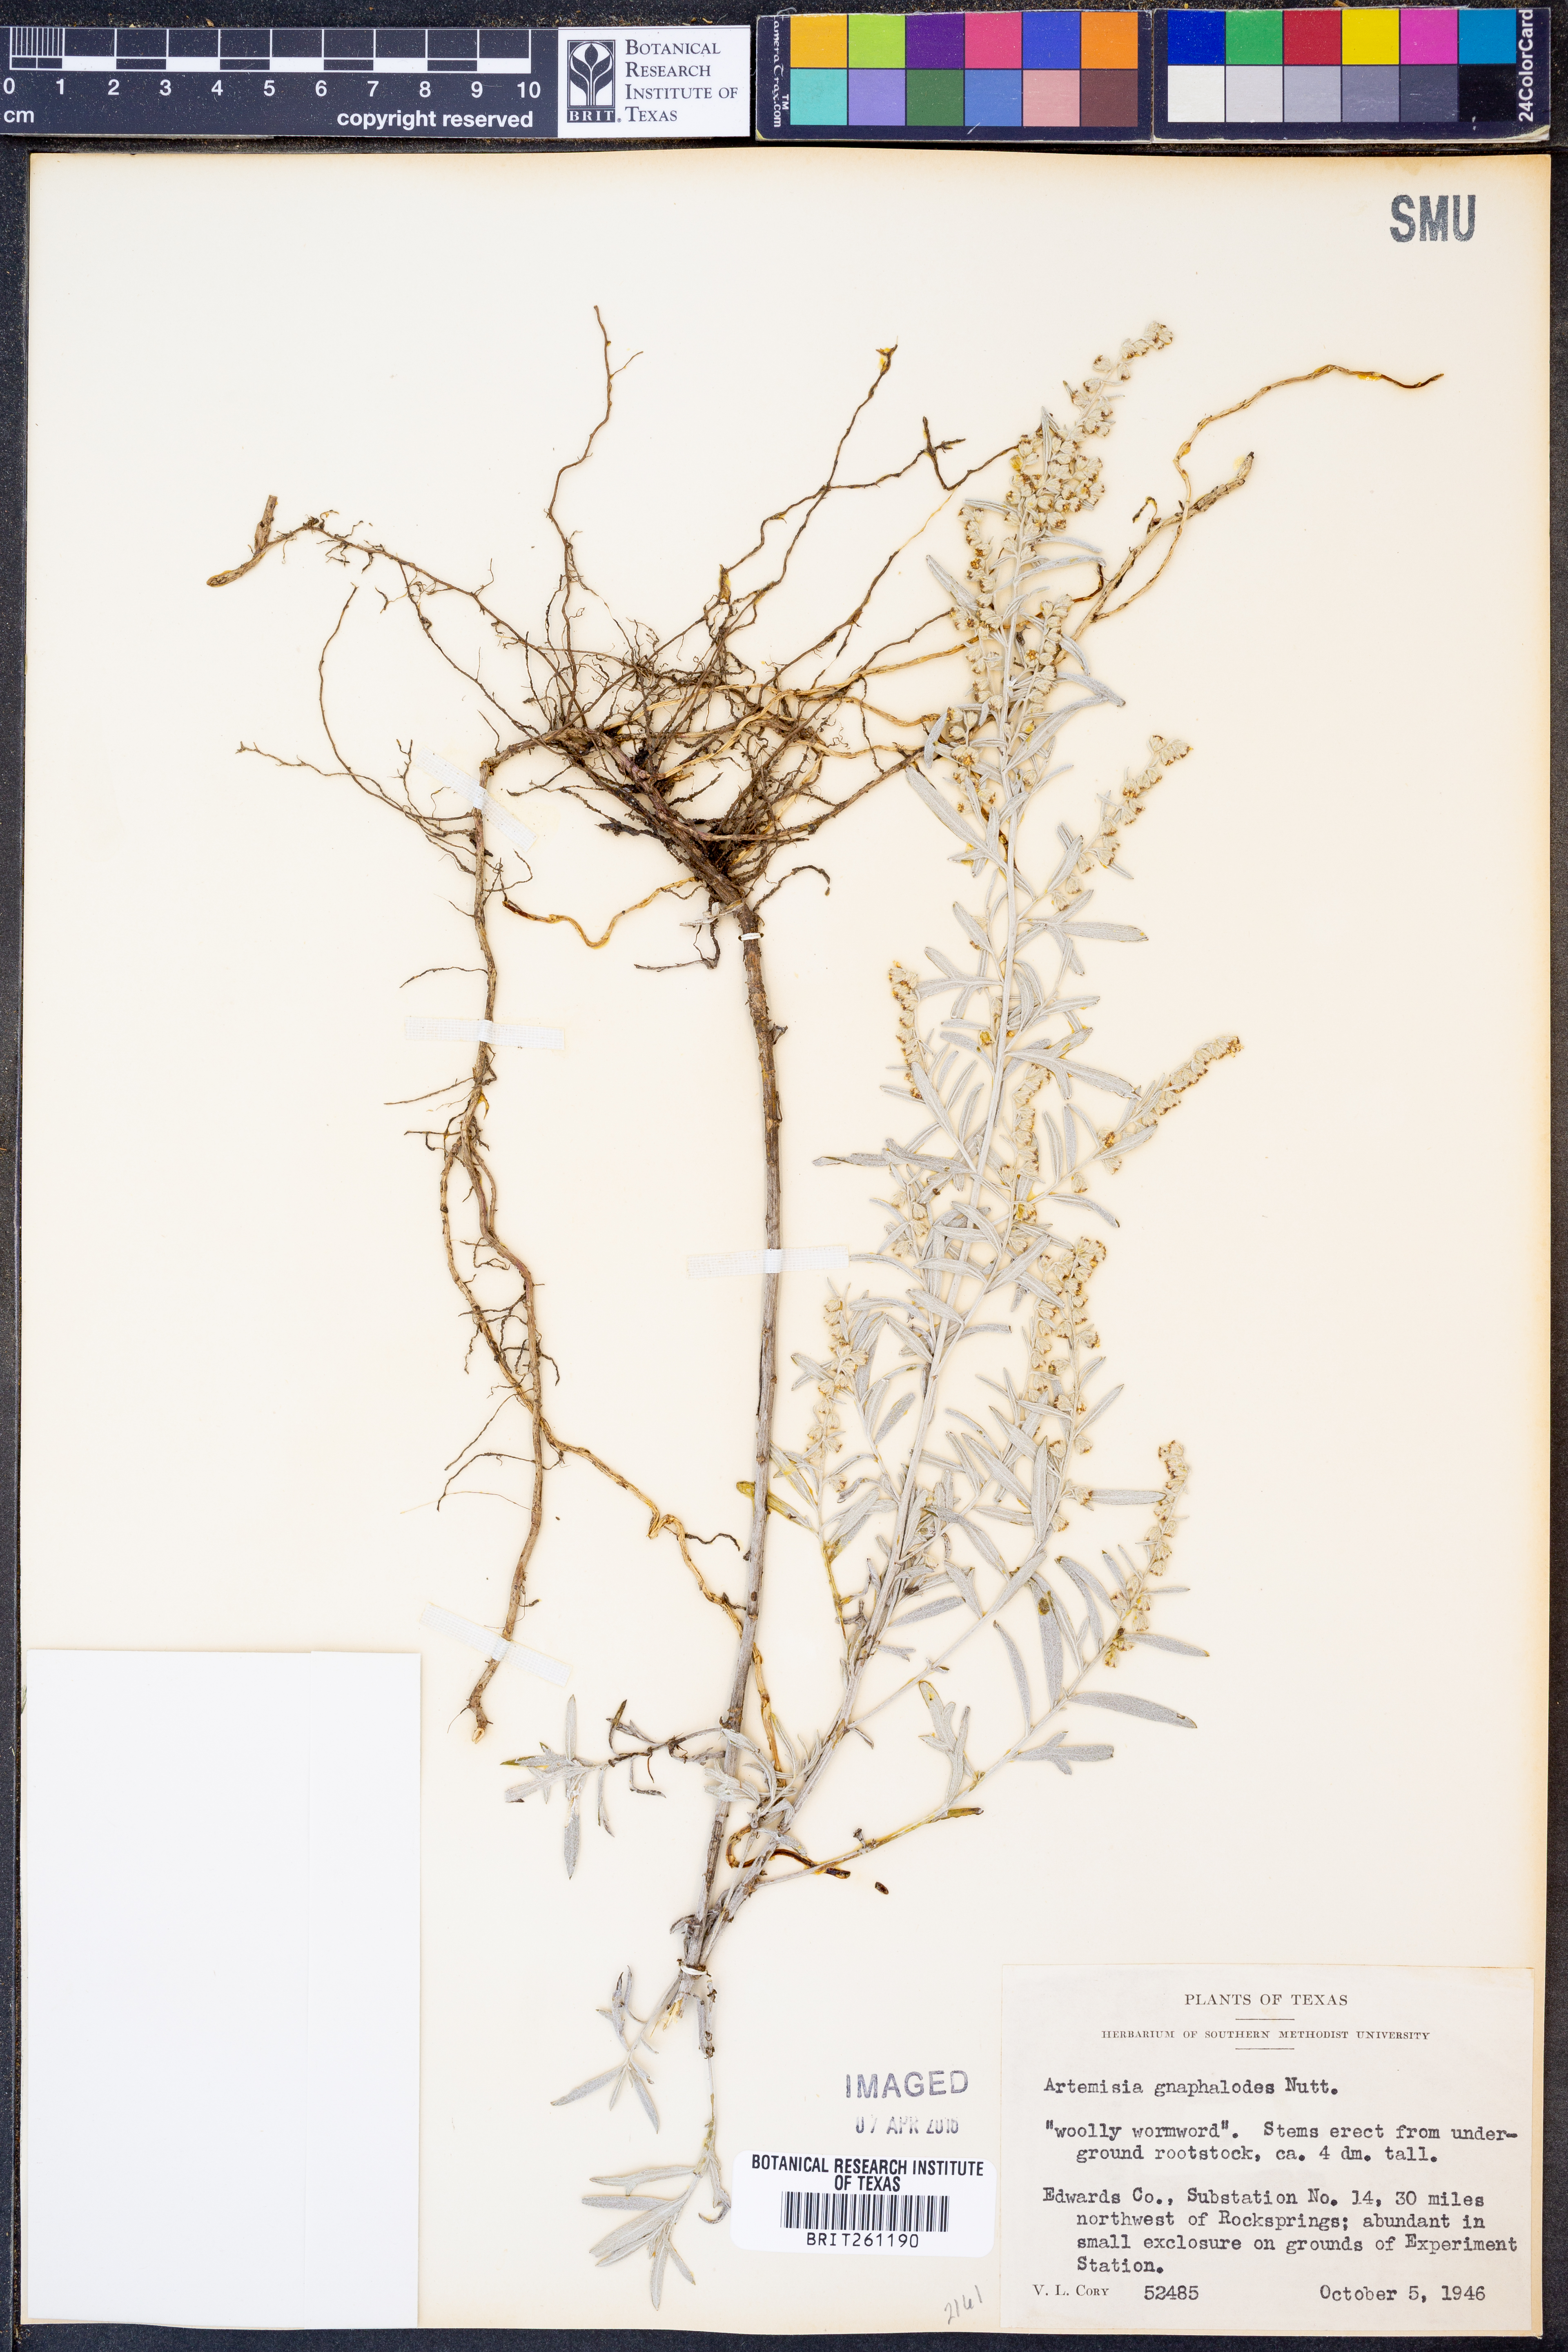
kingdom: Plantae
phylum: Tracheophyta
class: Magnoliopsida
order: Asterales
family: Asteraceae
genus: Artemisia
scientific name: Artemisia ludoviciana
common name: Western mugwort
